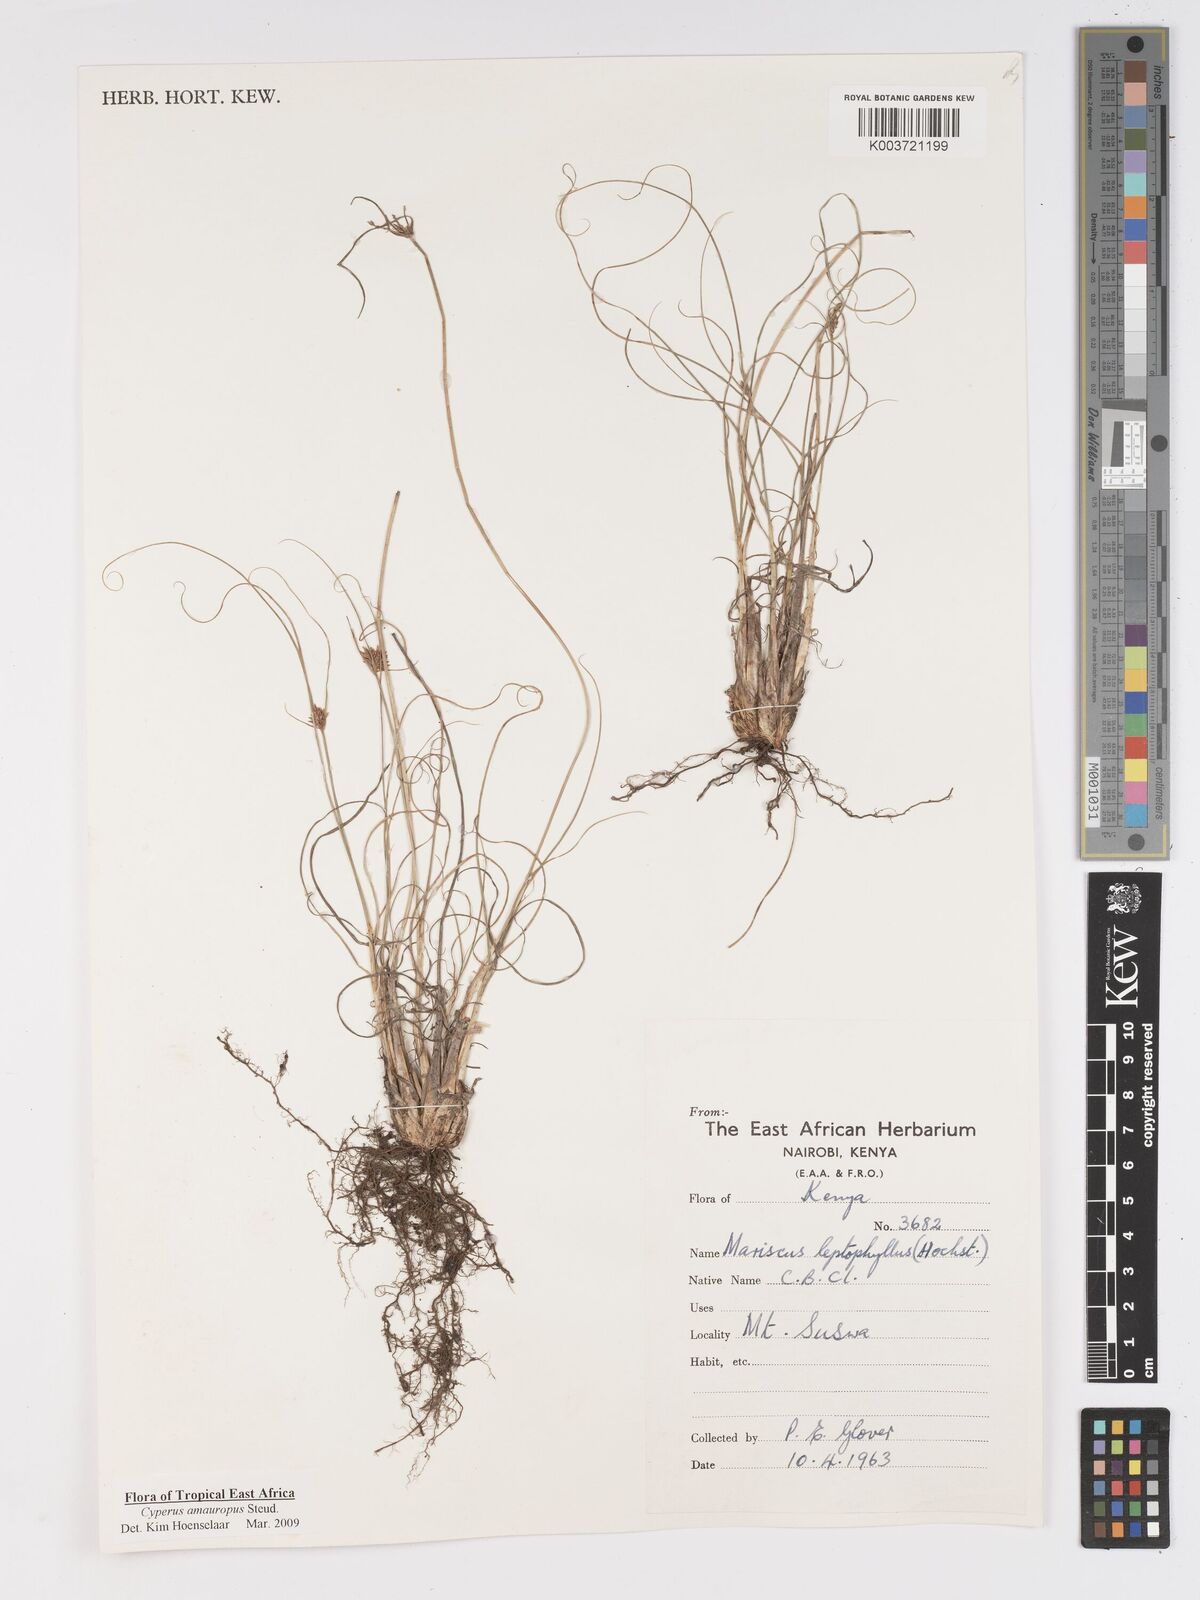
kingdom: Plantae
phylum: Tracheophyta
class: Liliopsida
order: Poales
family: Cyperaceae
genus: Cyperus
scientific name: Cyperus amauropus
